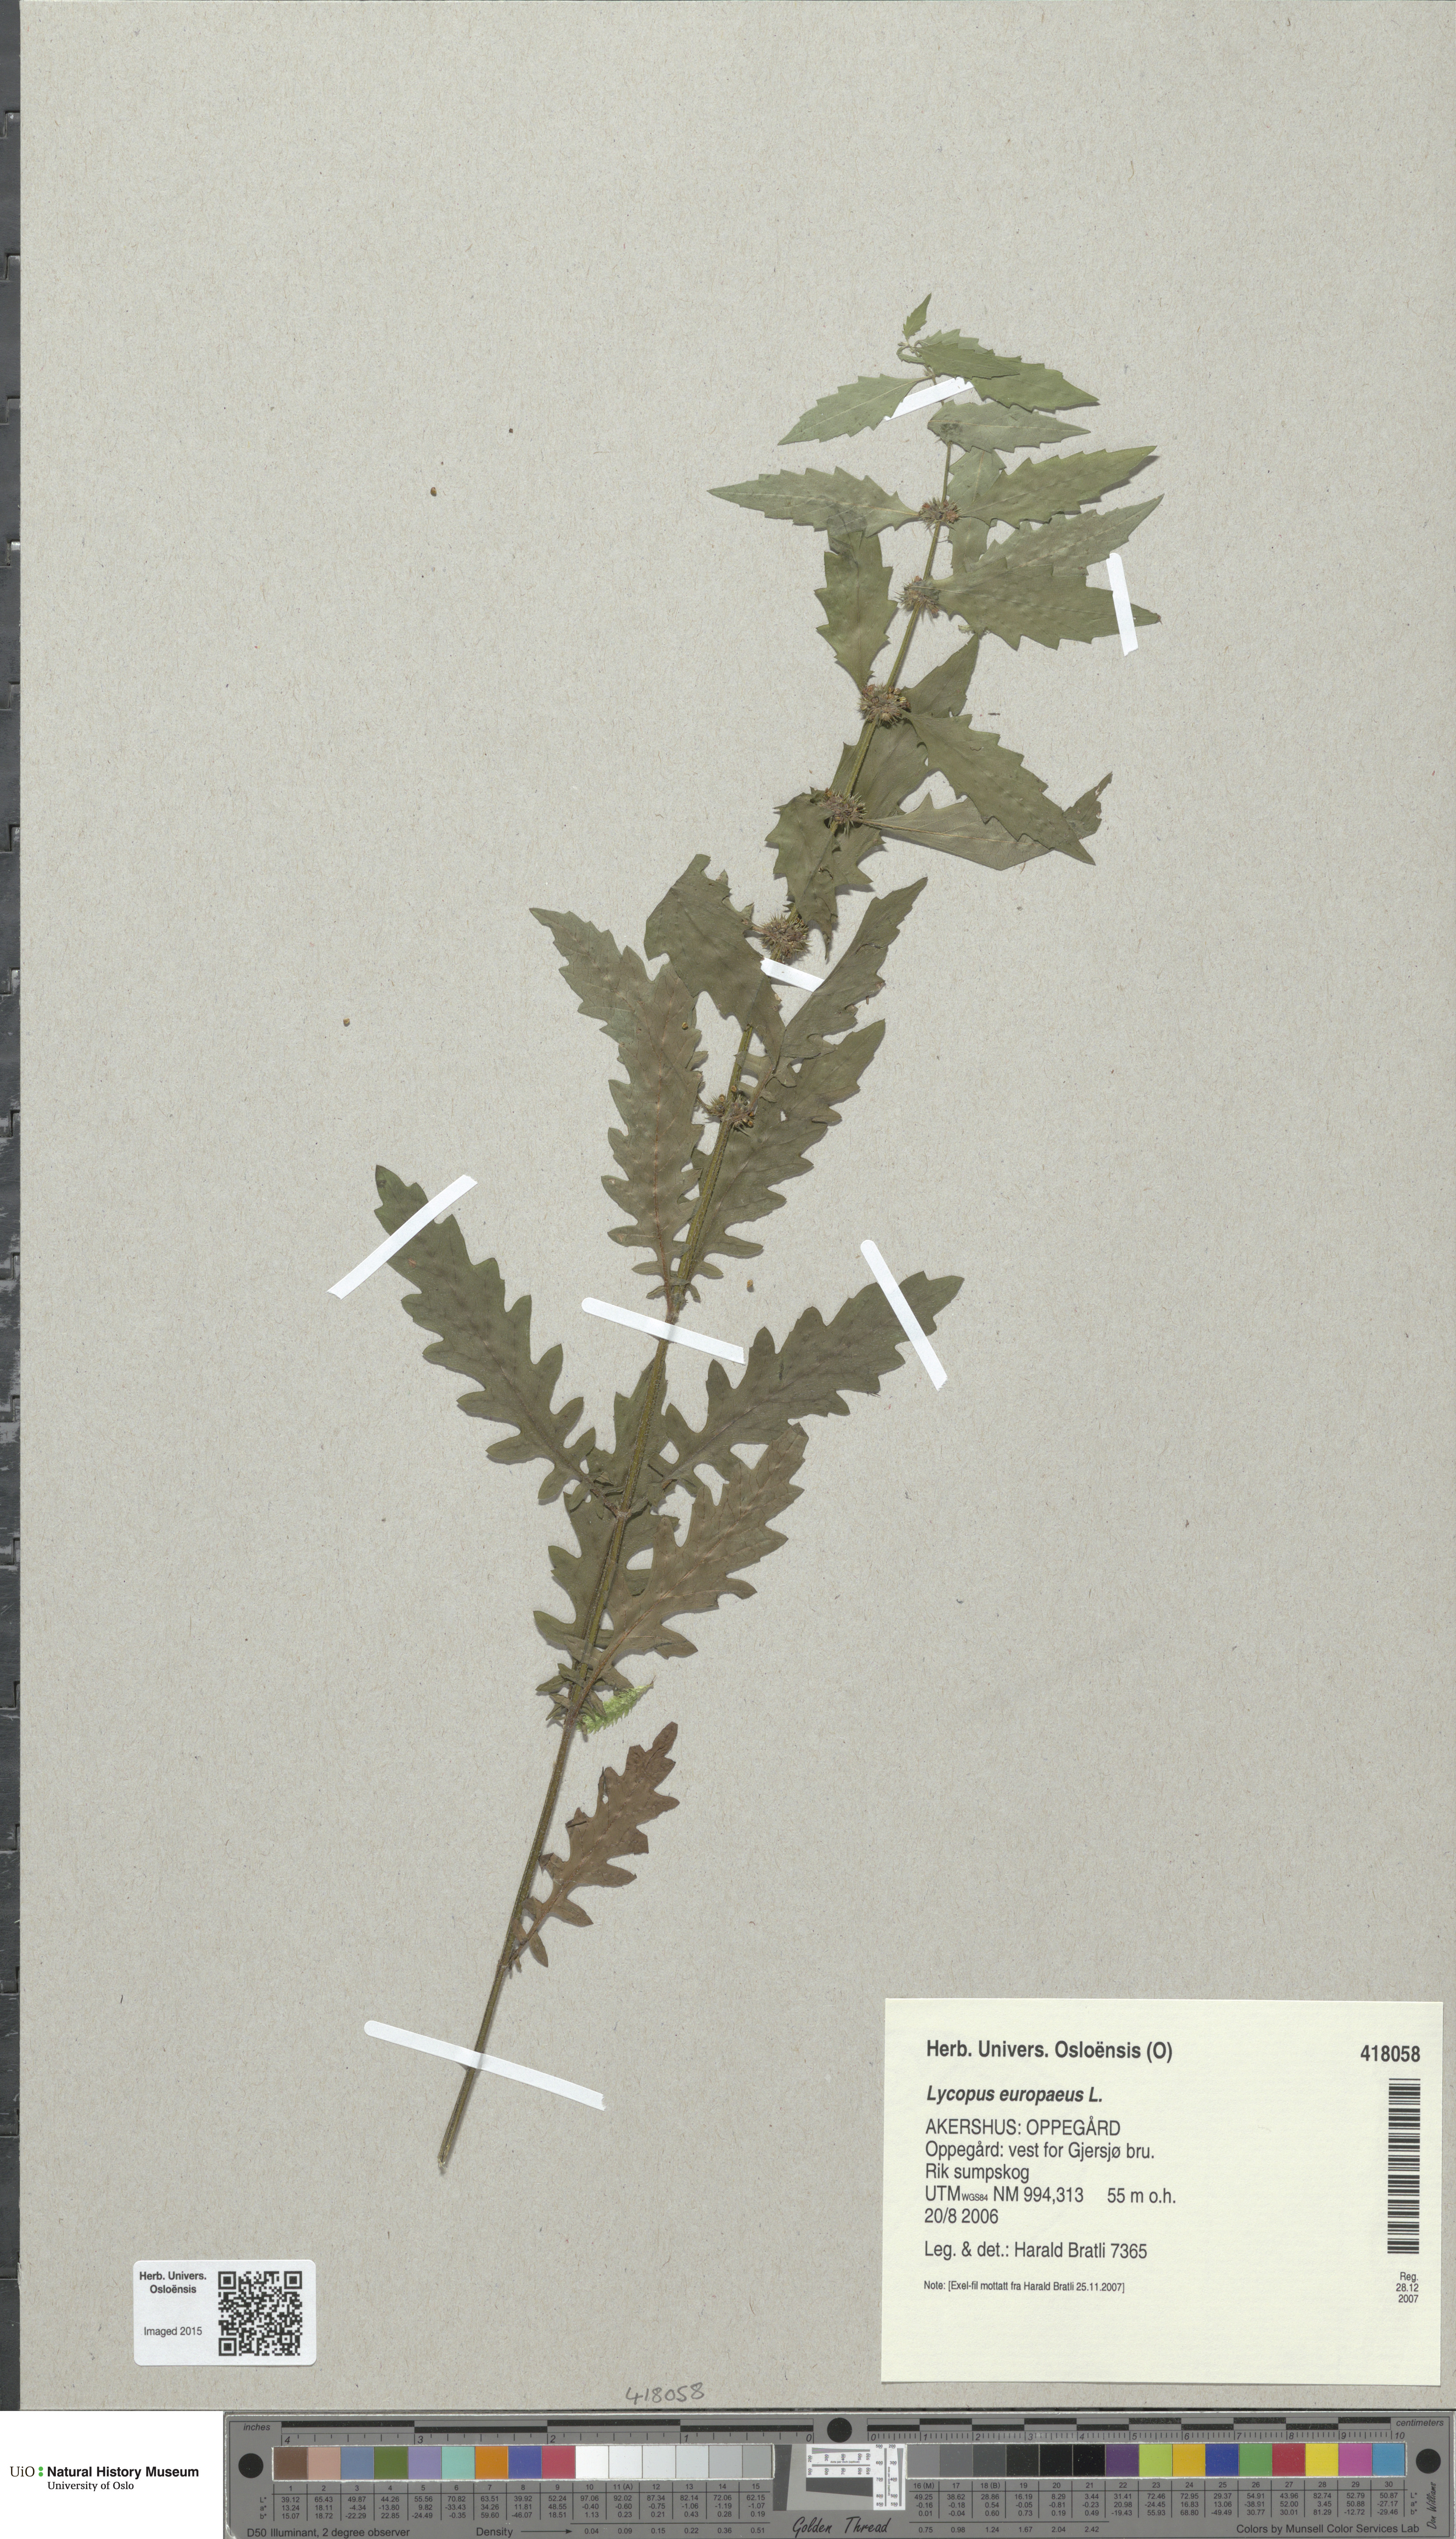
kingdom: Plantae
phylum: Tracheophyta
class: Magnoliopsida
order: Lamiales
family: Lamiaceae
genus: Lycopus
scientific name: Lycopus europaeus
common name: European bugleweed
